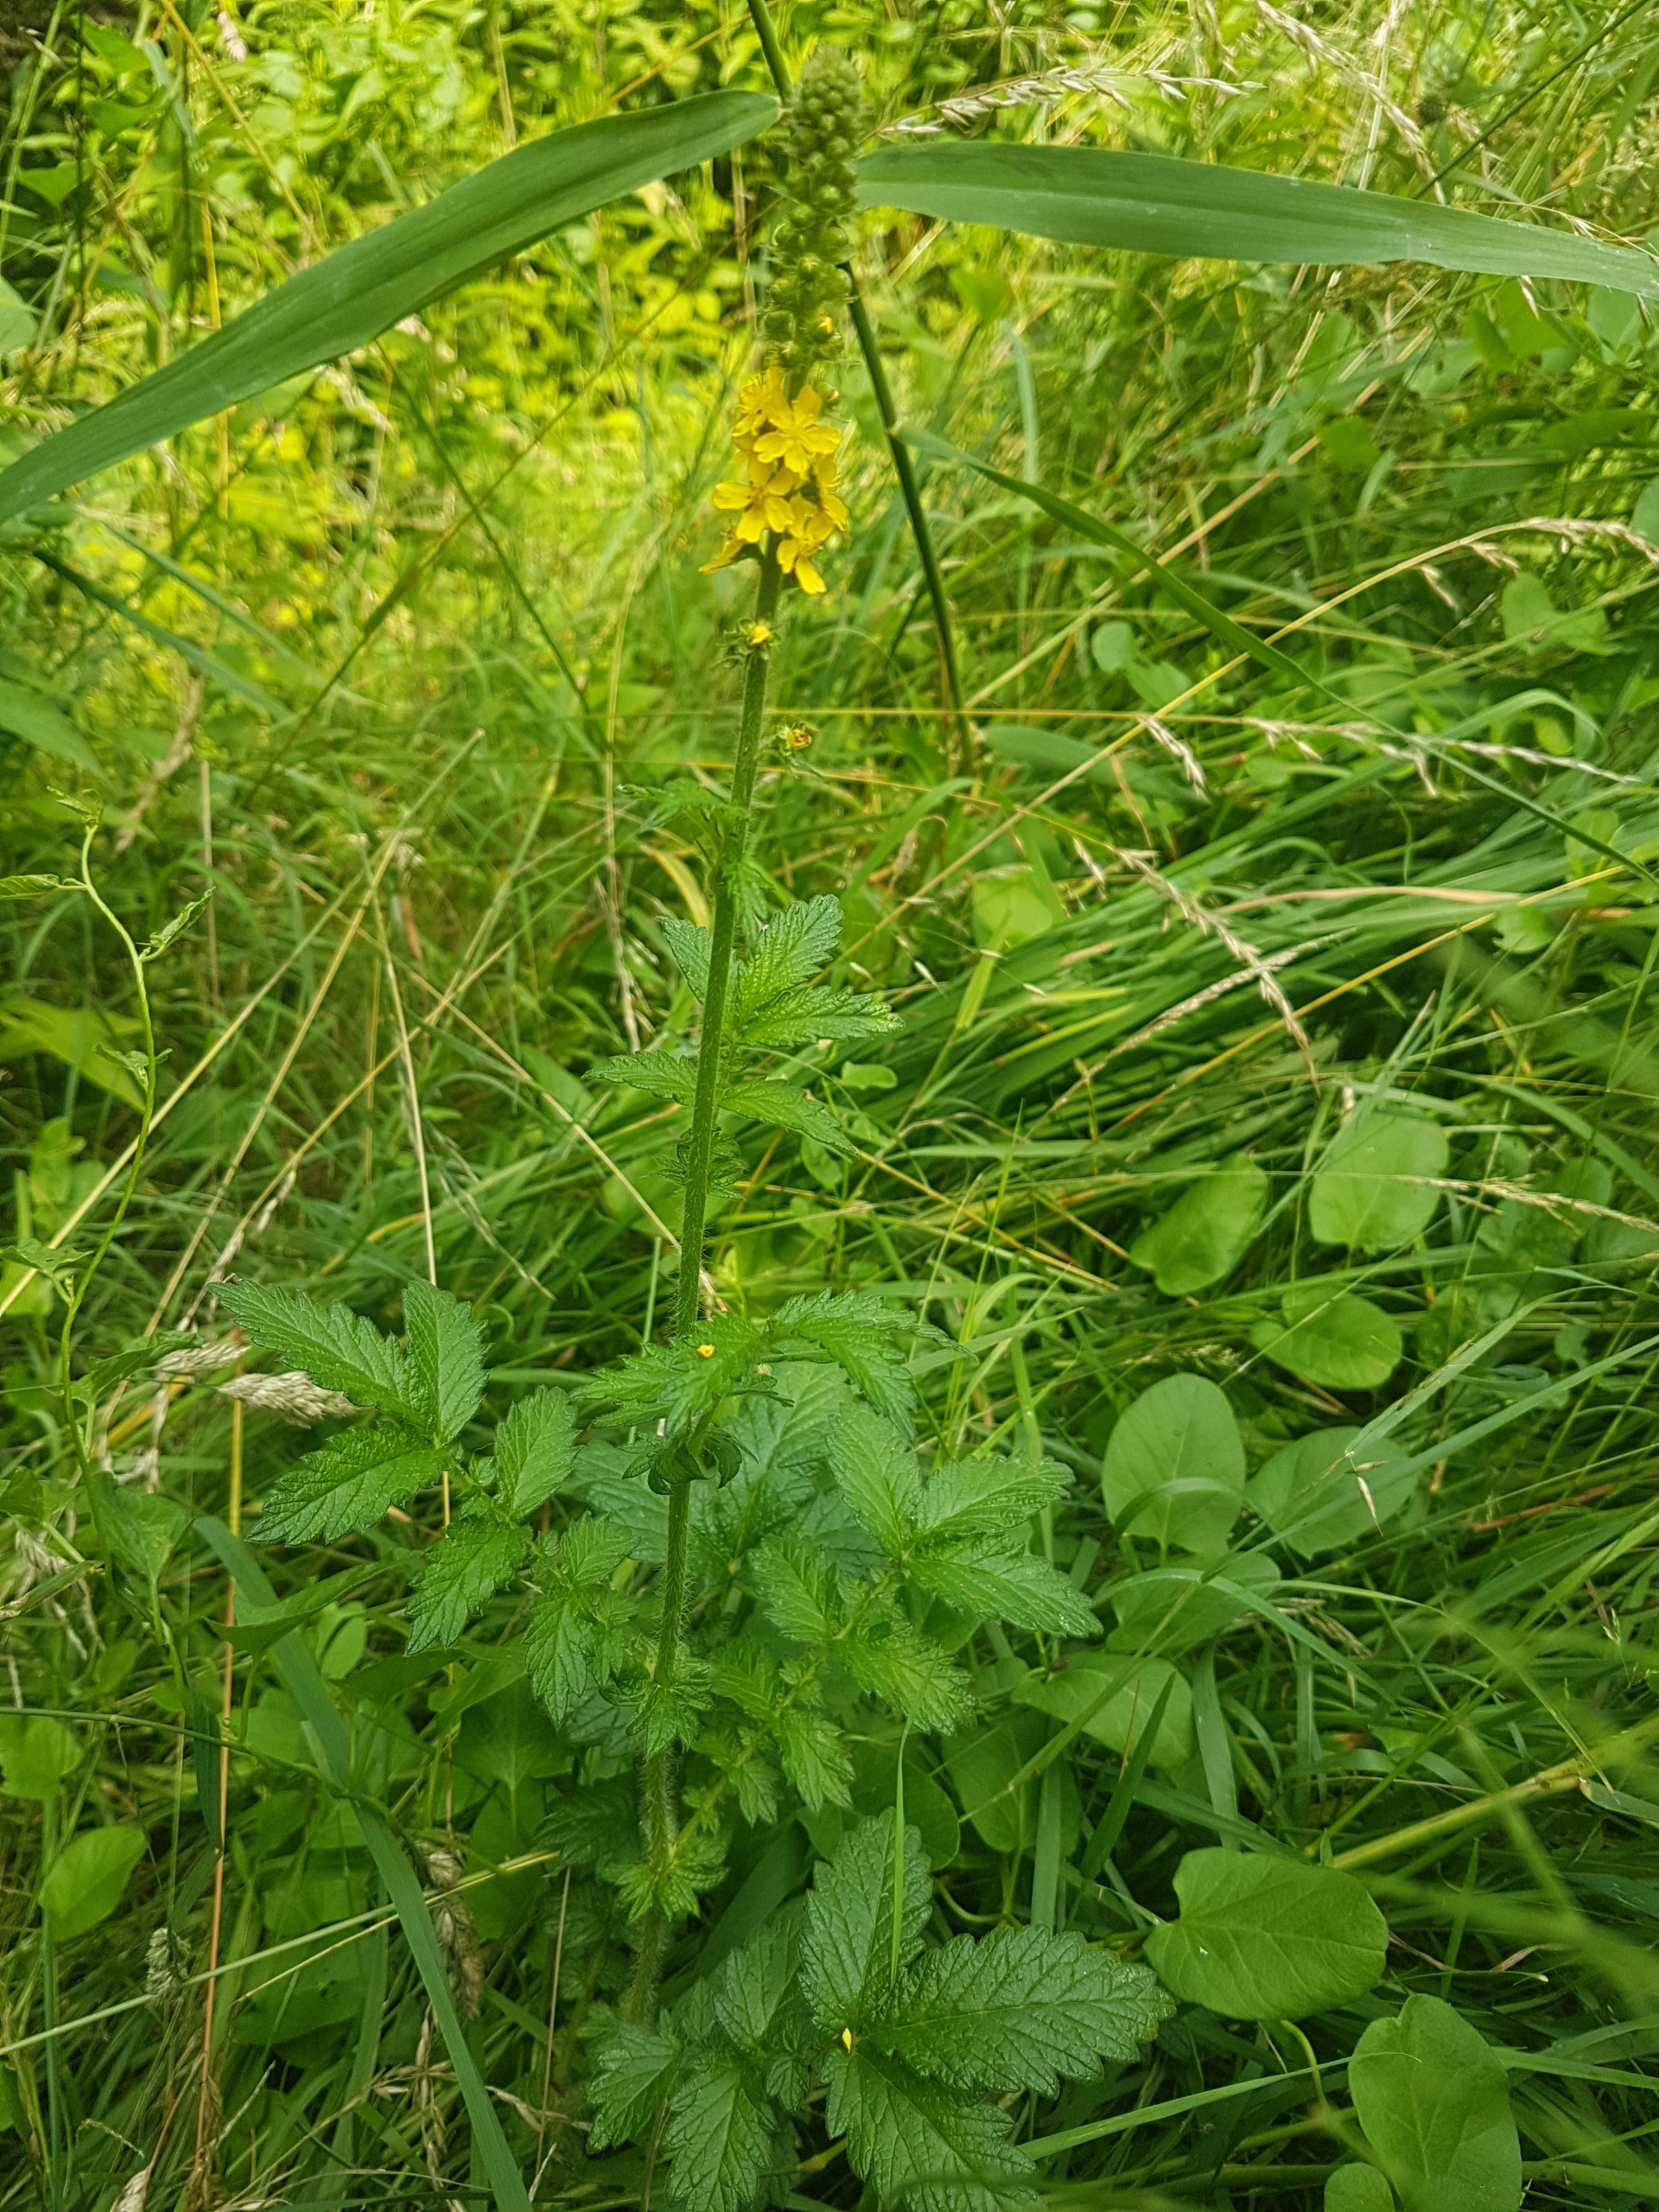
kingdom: Plantae
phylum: Tracheophyta
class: Magnoliopsida
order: Rosales
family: Rosaceae
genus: Agrimonia
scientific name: Agrimonia eupatoria
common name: Almindelig agermåne
